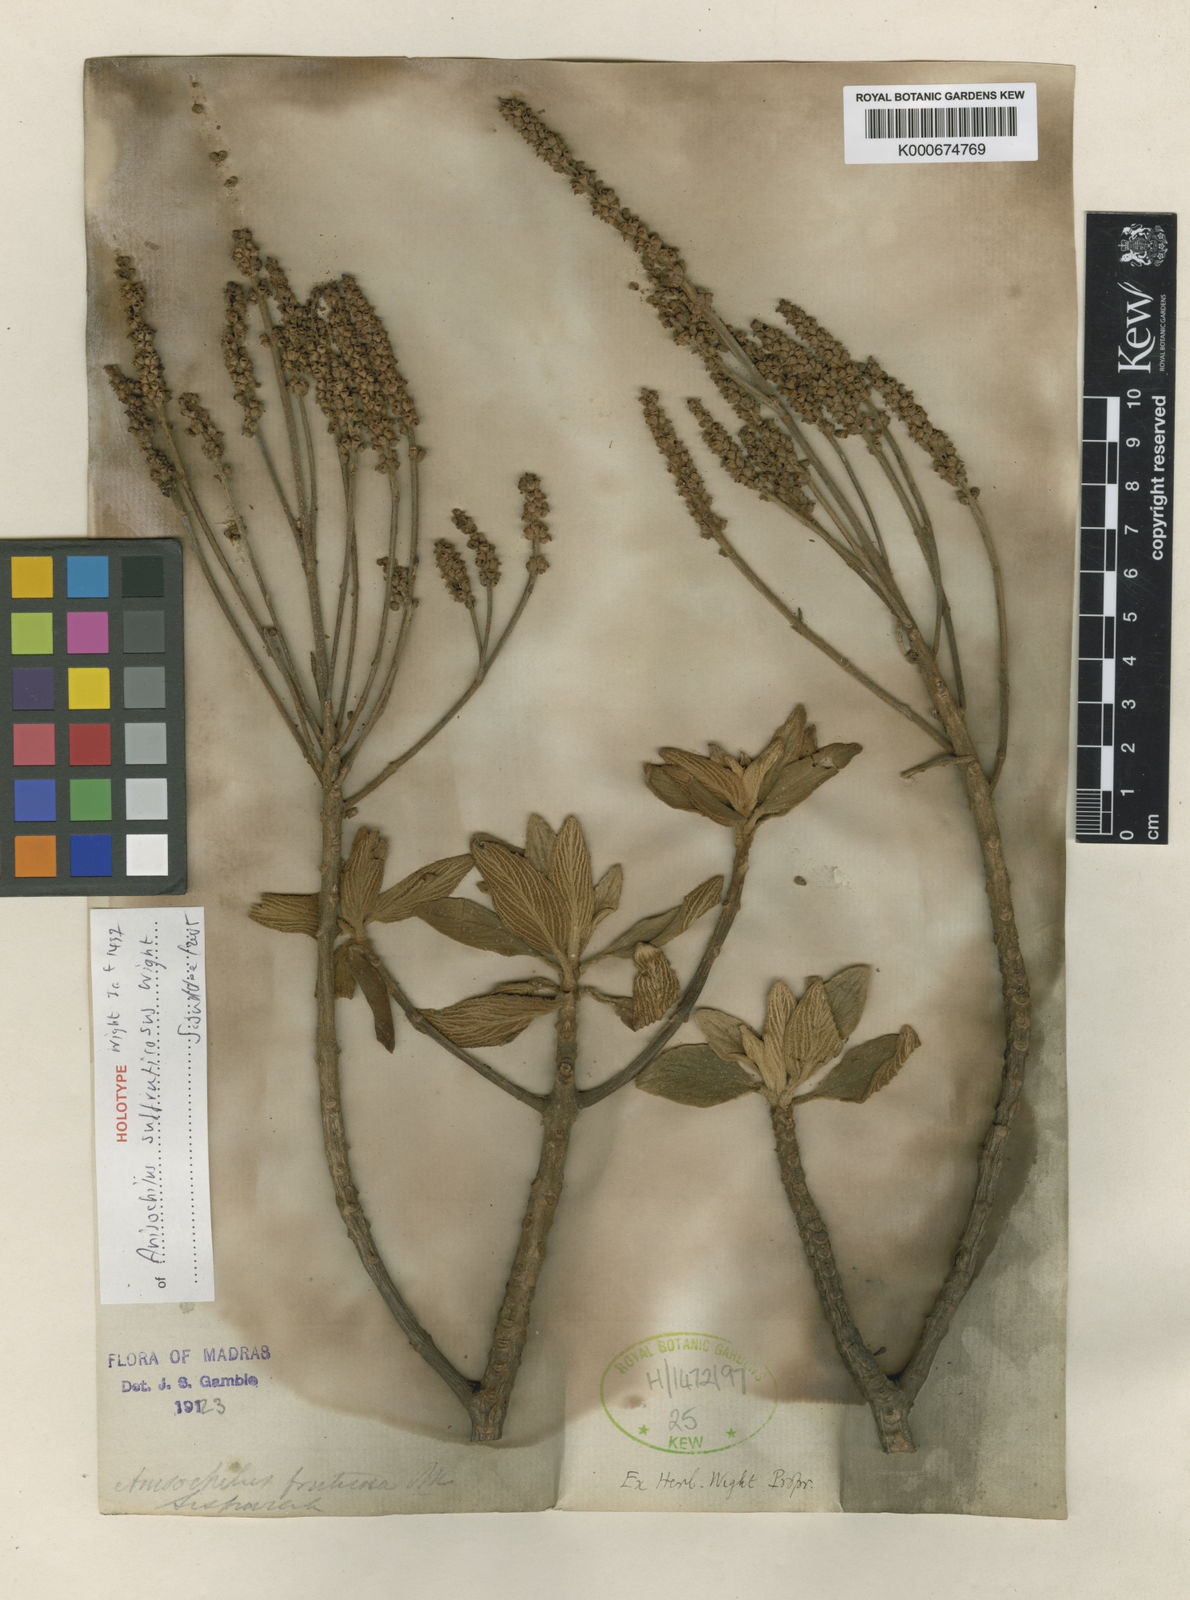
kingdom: Plantae
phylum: Tracheophyta
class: Magnoliopsida
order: Lamiales
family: Lamiaceae
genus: Coleus
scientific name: Coleus suffruticosus
